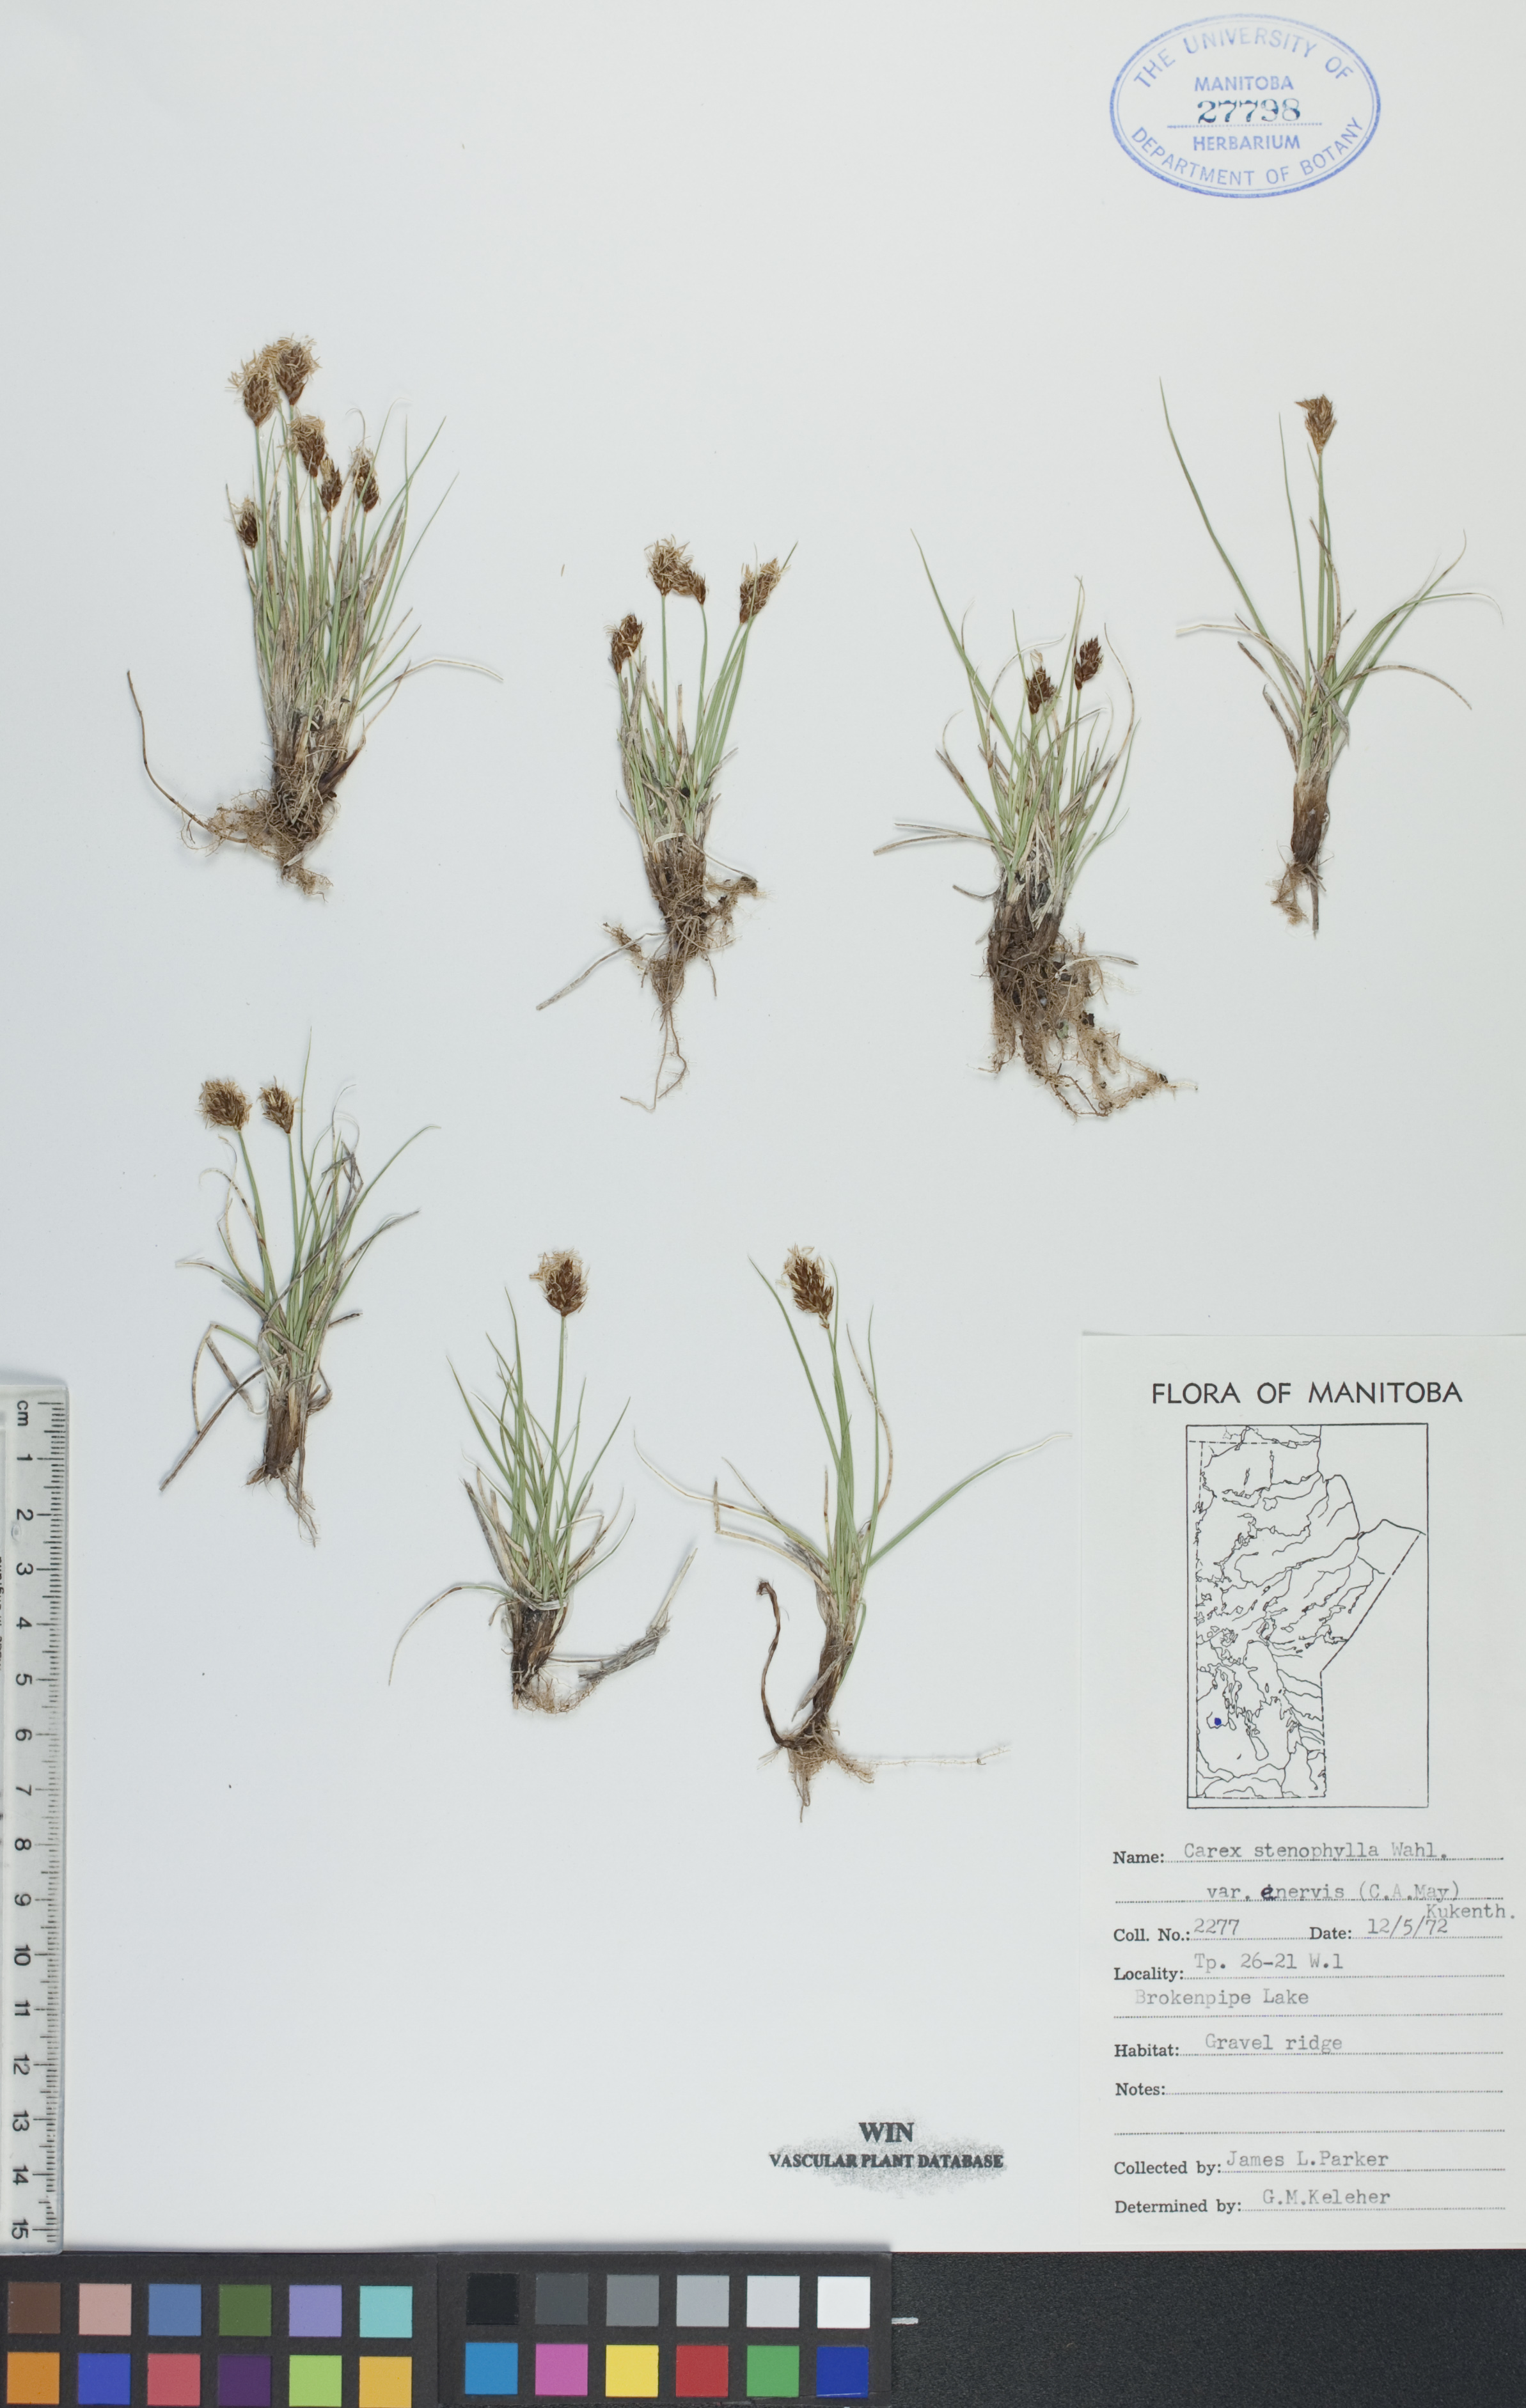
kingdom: Plantae
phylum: Tracheophyta
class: Liliopsida
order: Poales
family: Cyperaceae
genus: Carex
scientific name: Carex enervis
